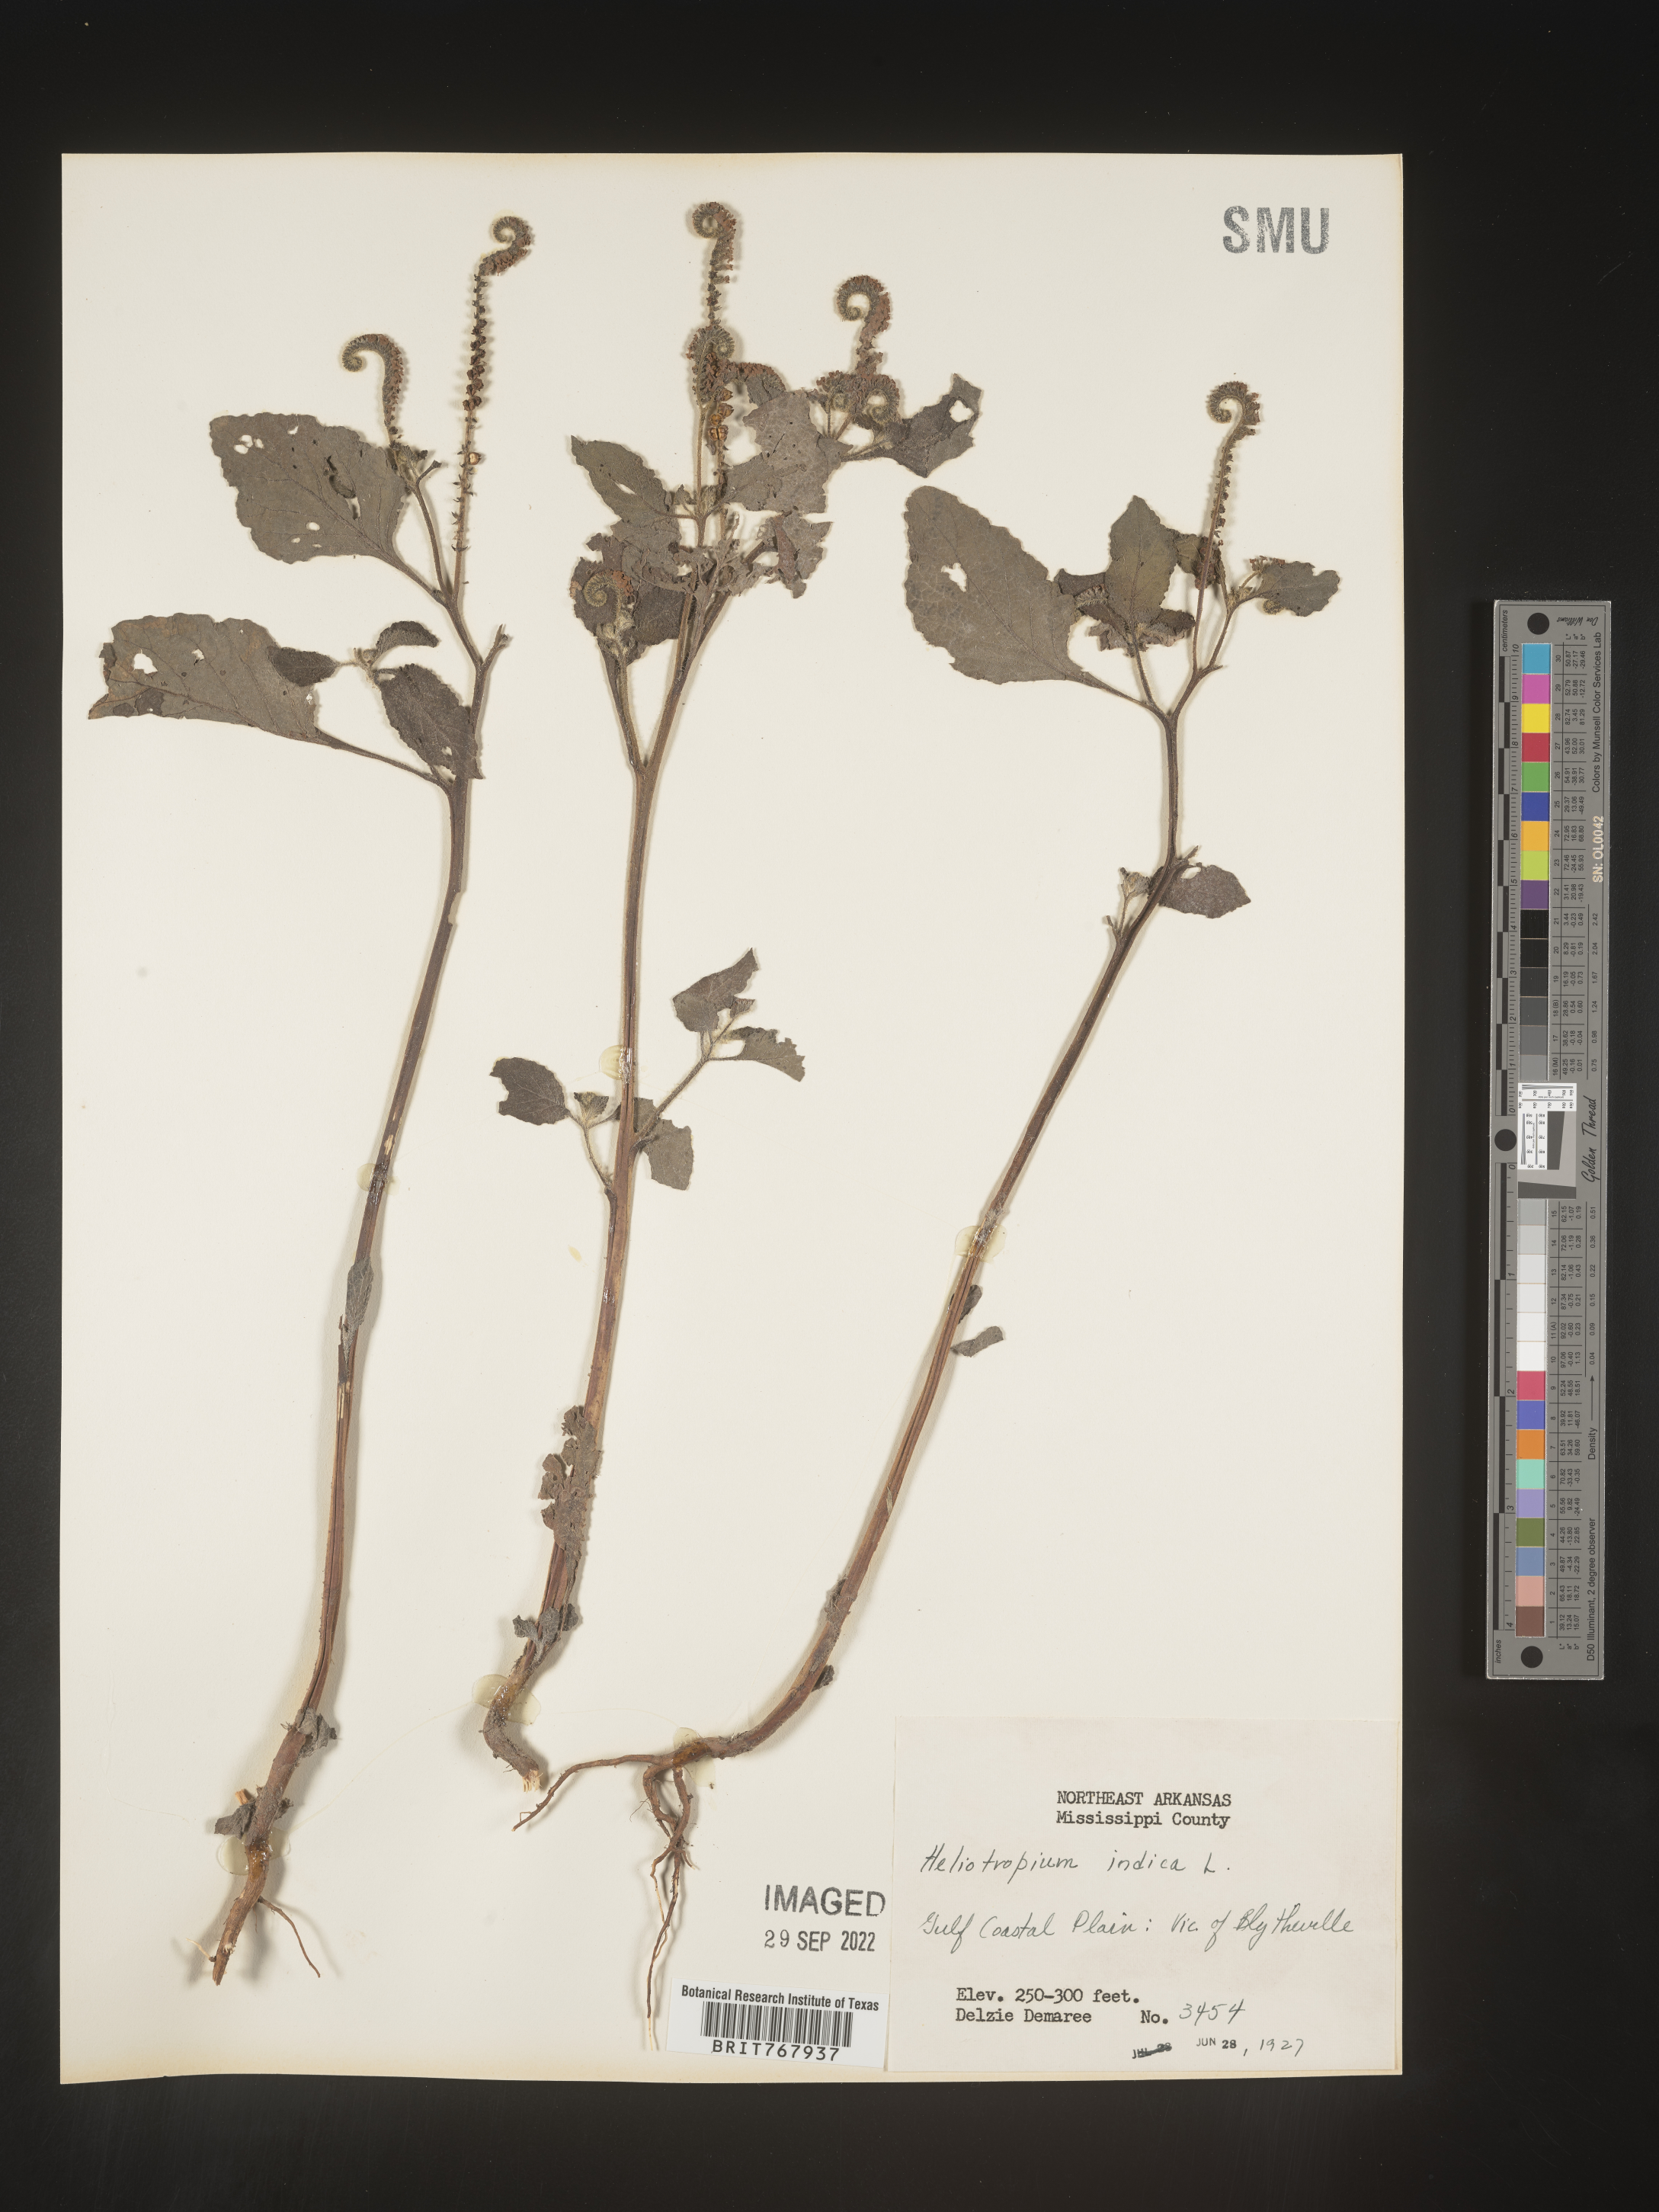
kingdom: Plantae
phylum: Tracheophyta
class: Magnoliopsida
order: Boraginales
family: Heliotropiaceae
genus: Heliotropium
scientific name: Heliotropium indicum
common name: Indian heliotrope
